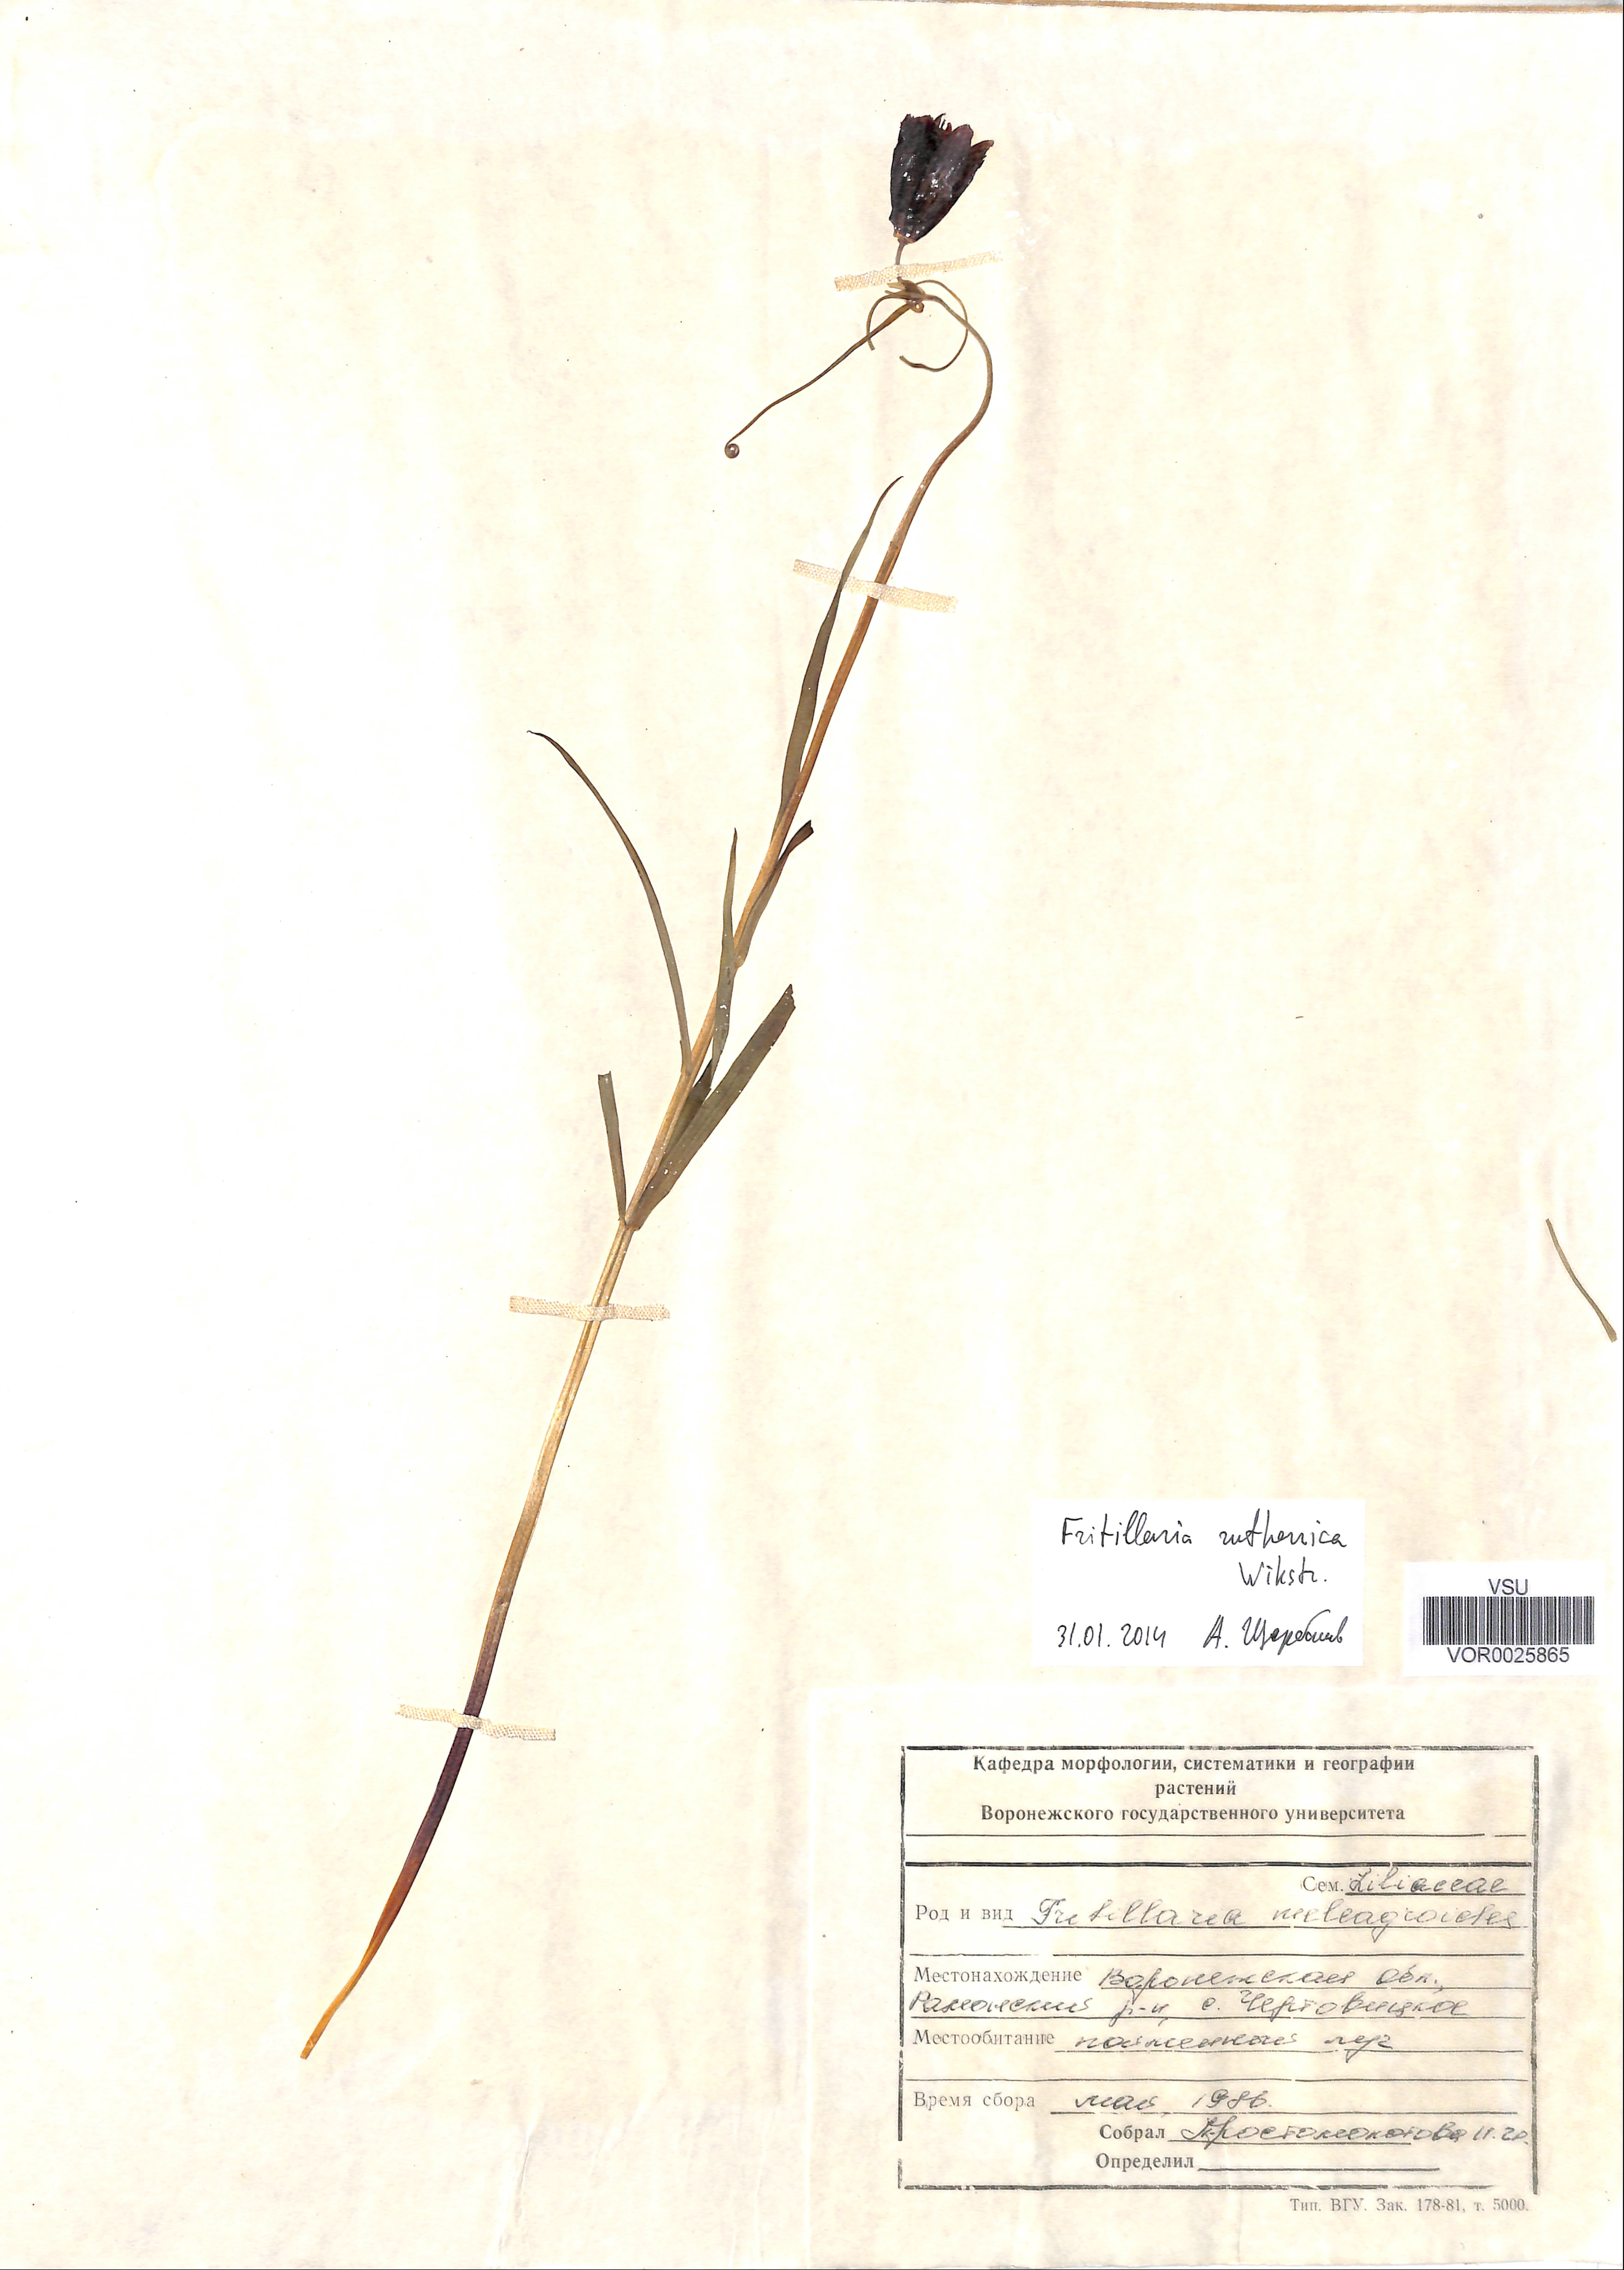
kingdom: Plantae
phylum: Tracheophyta
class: Liliopsida
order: Liliales
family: Liliaceae
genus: Fritillaria
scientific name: Fritillaria ruthenica
